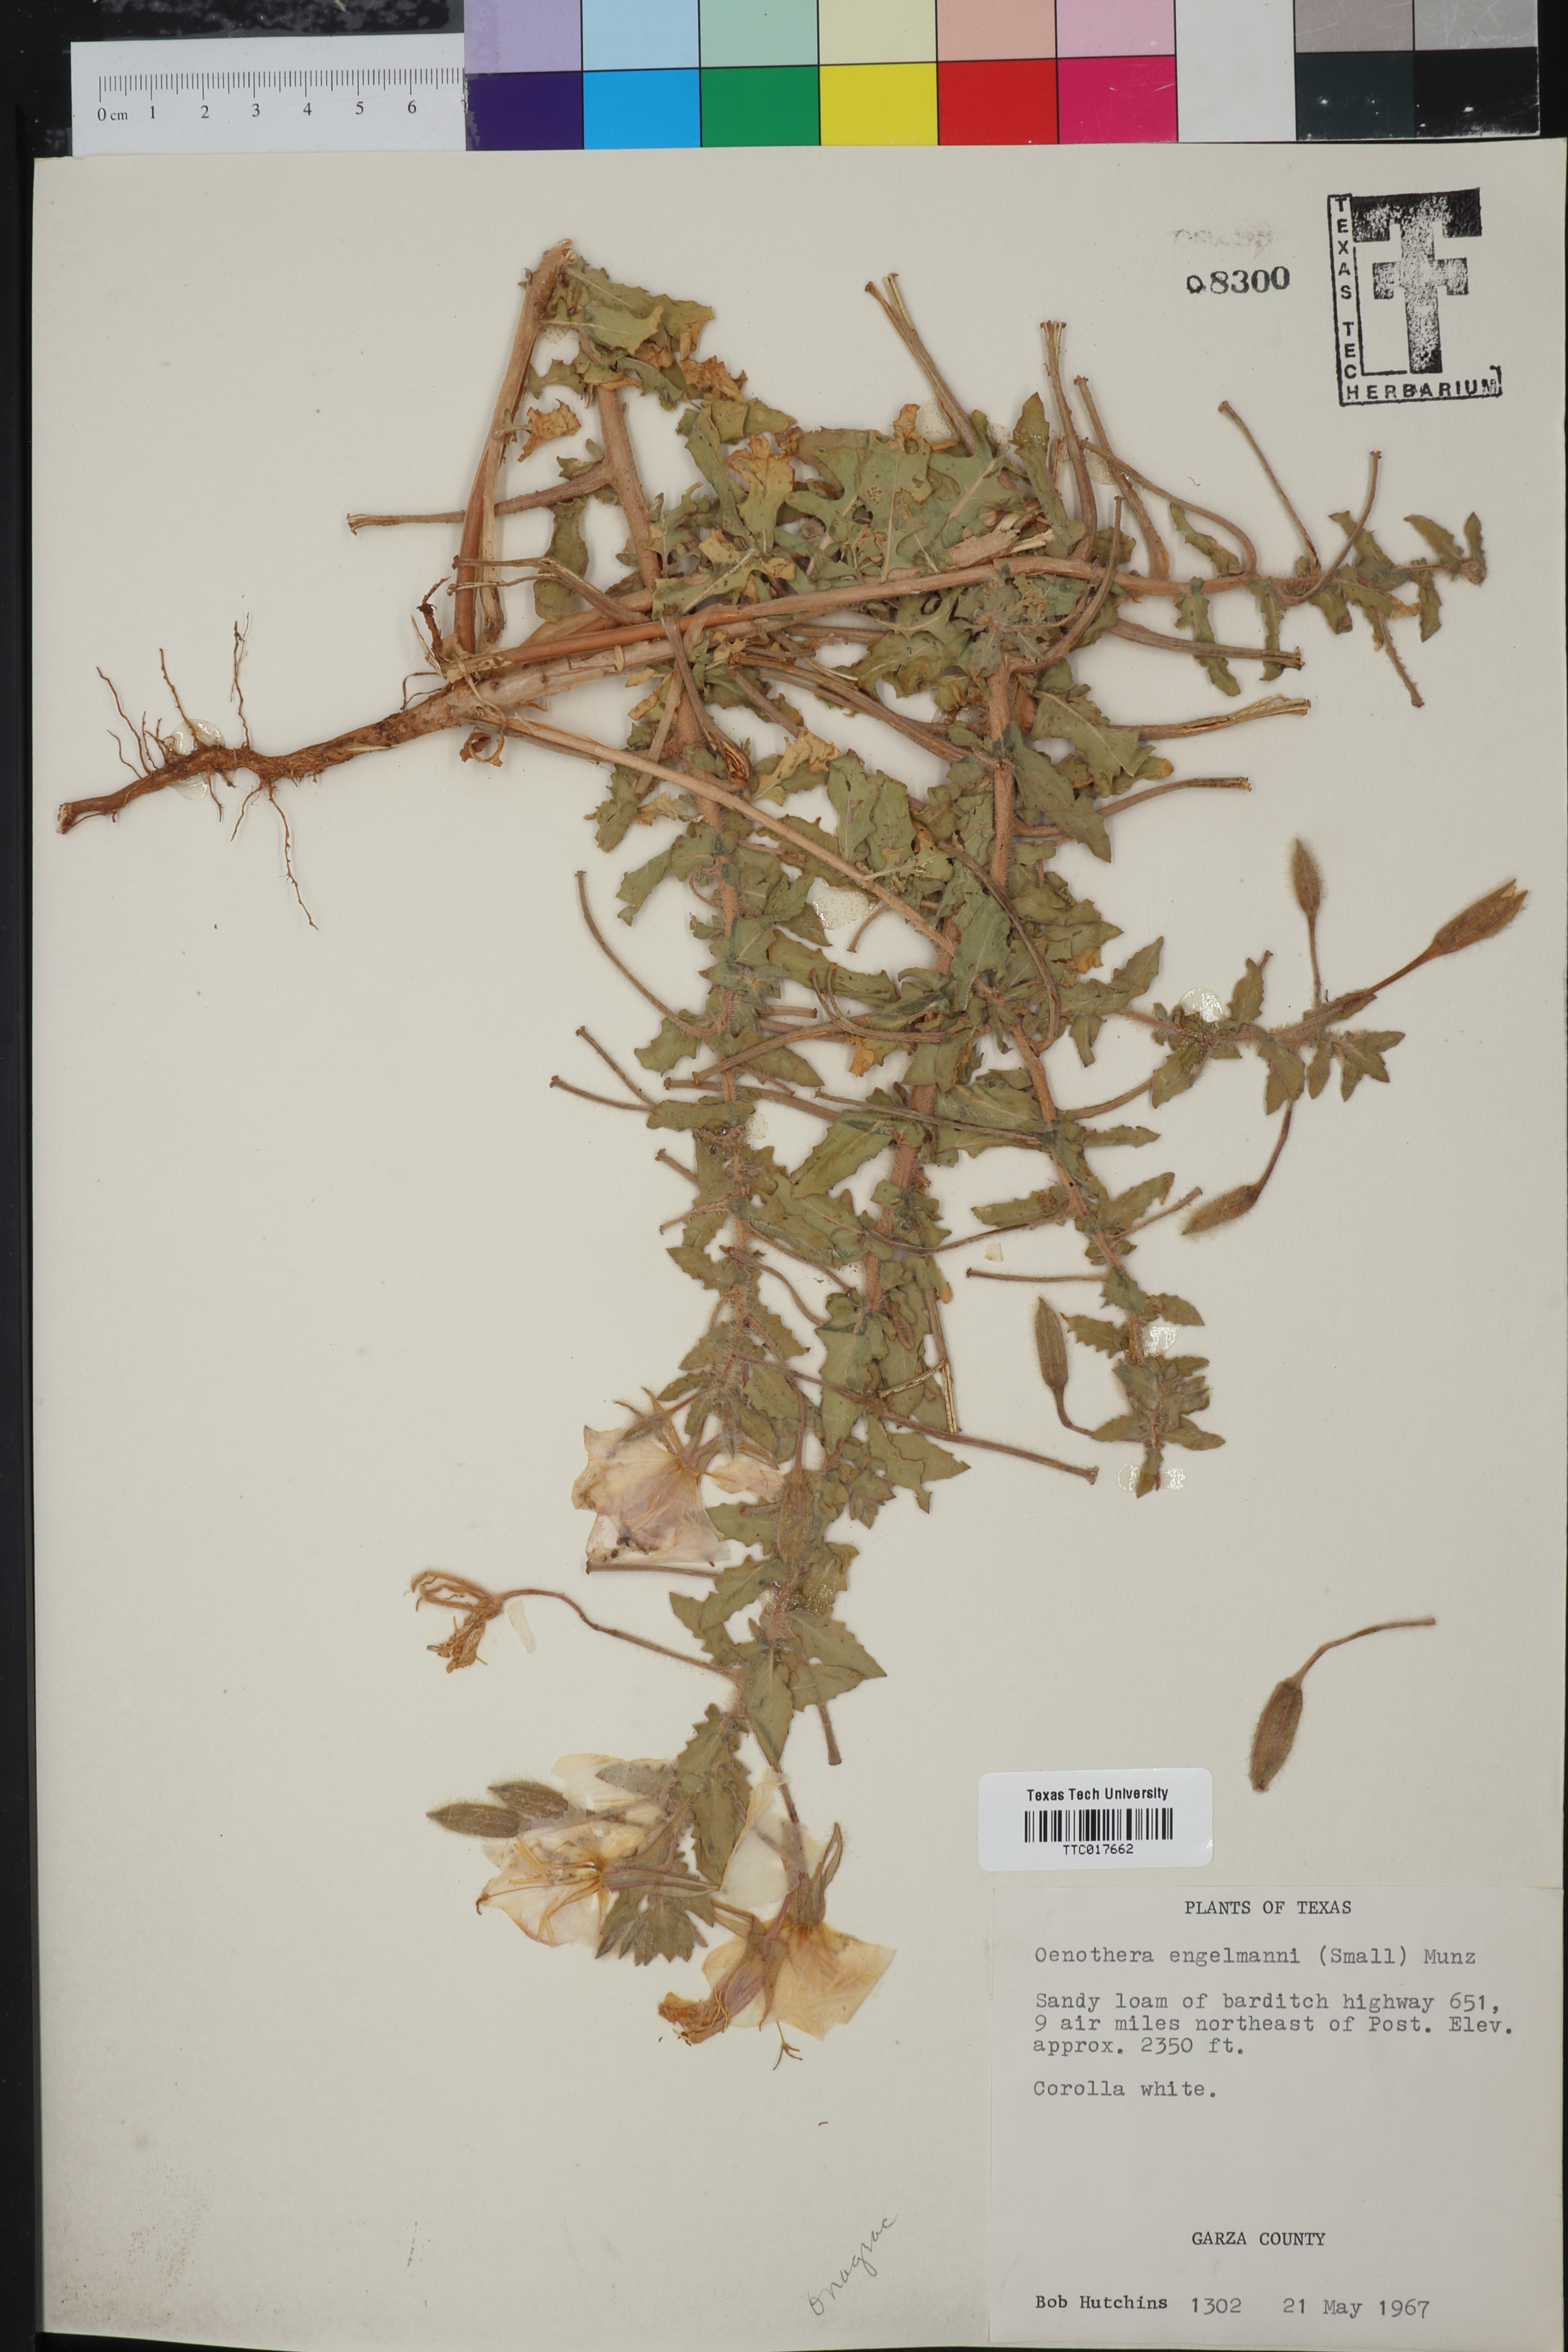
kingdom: Plantae
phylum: Tracheophyta
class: Magnoliopsida
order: Myrtales
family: Onagraceae
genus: Oenothera
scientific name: Oenothera engelmannii
